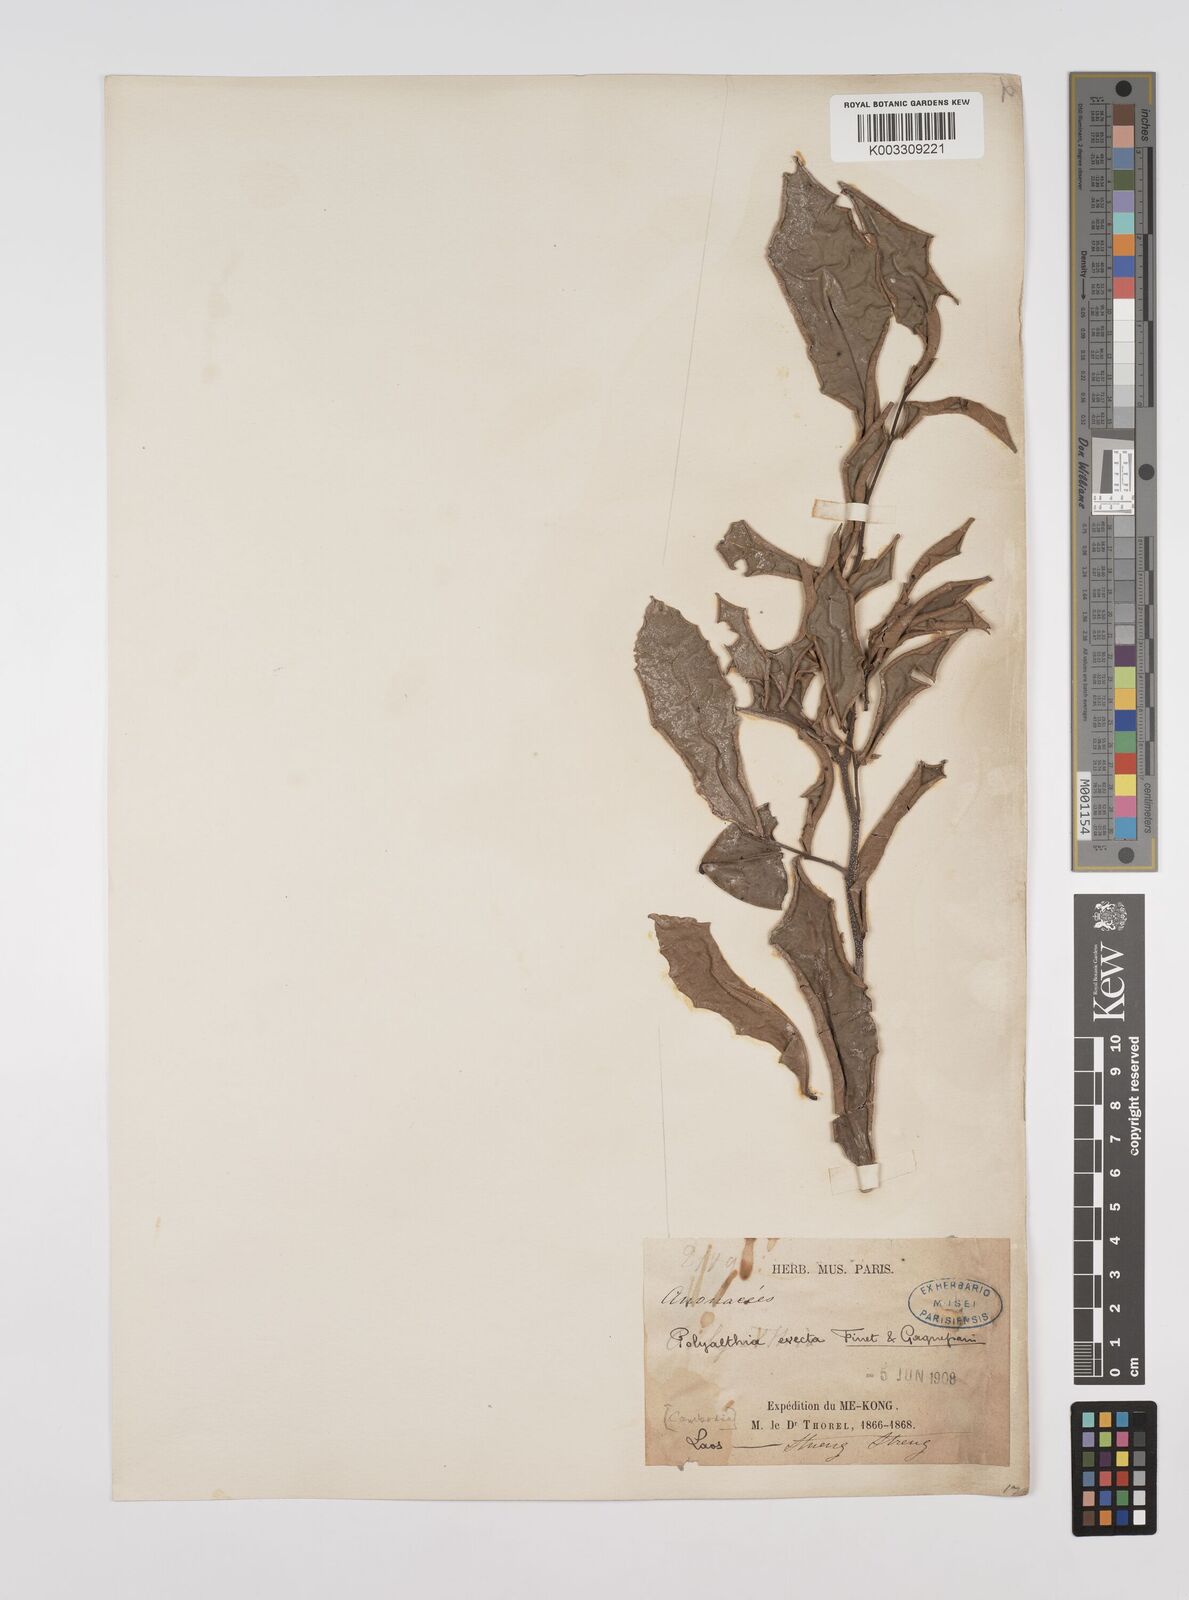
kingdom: Plantae
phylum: Tracheophyta
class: Magnoliopsida
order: Magnoliales
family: Annonaceae
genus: Polyalthia
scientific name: Polyalthia evecta
